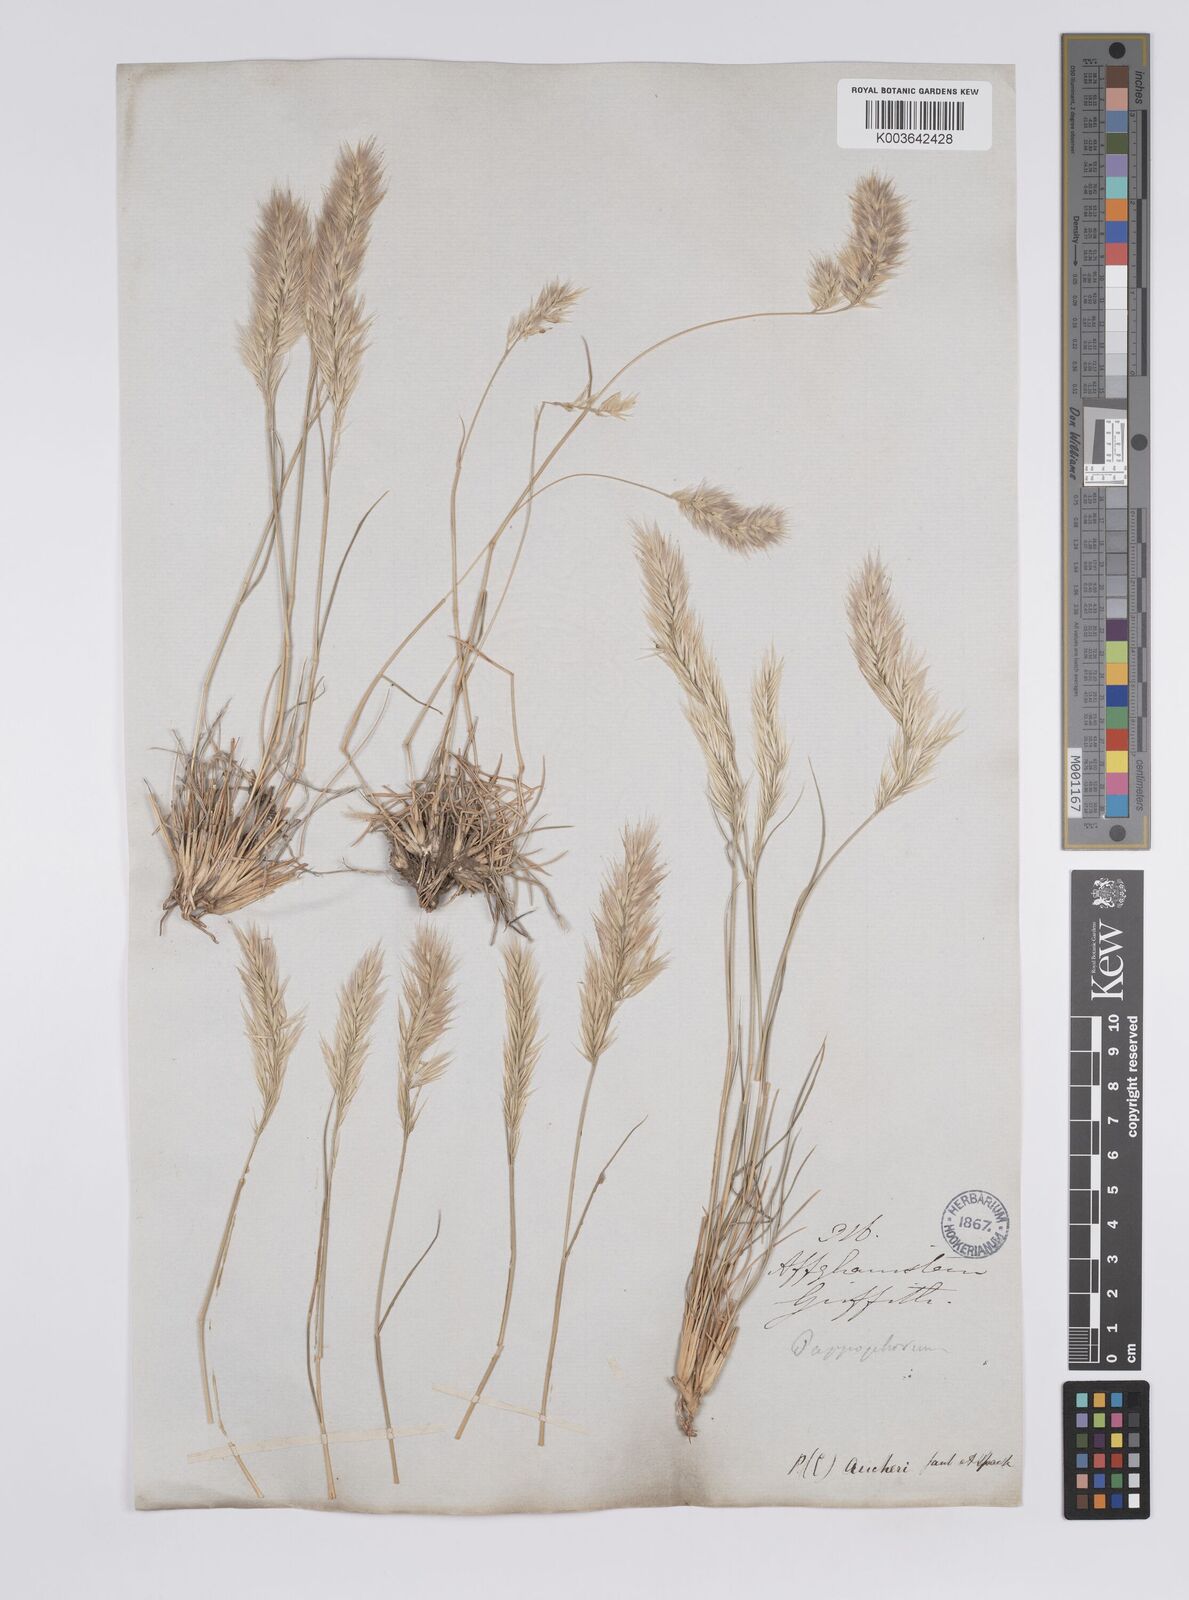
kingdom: Plantae
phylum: Tracheophyta
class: Liliopsida
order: Poales
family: Poaceae
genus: Enneapogon
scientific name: Enneapogon persicus
